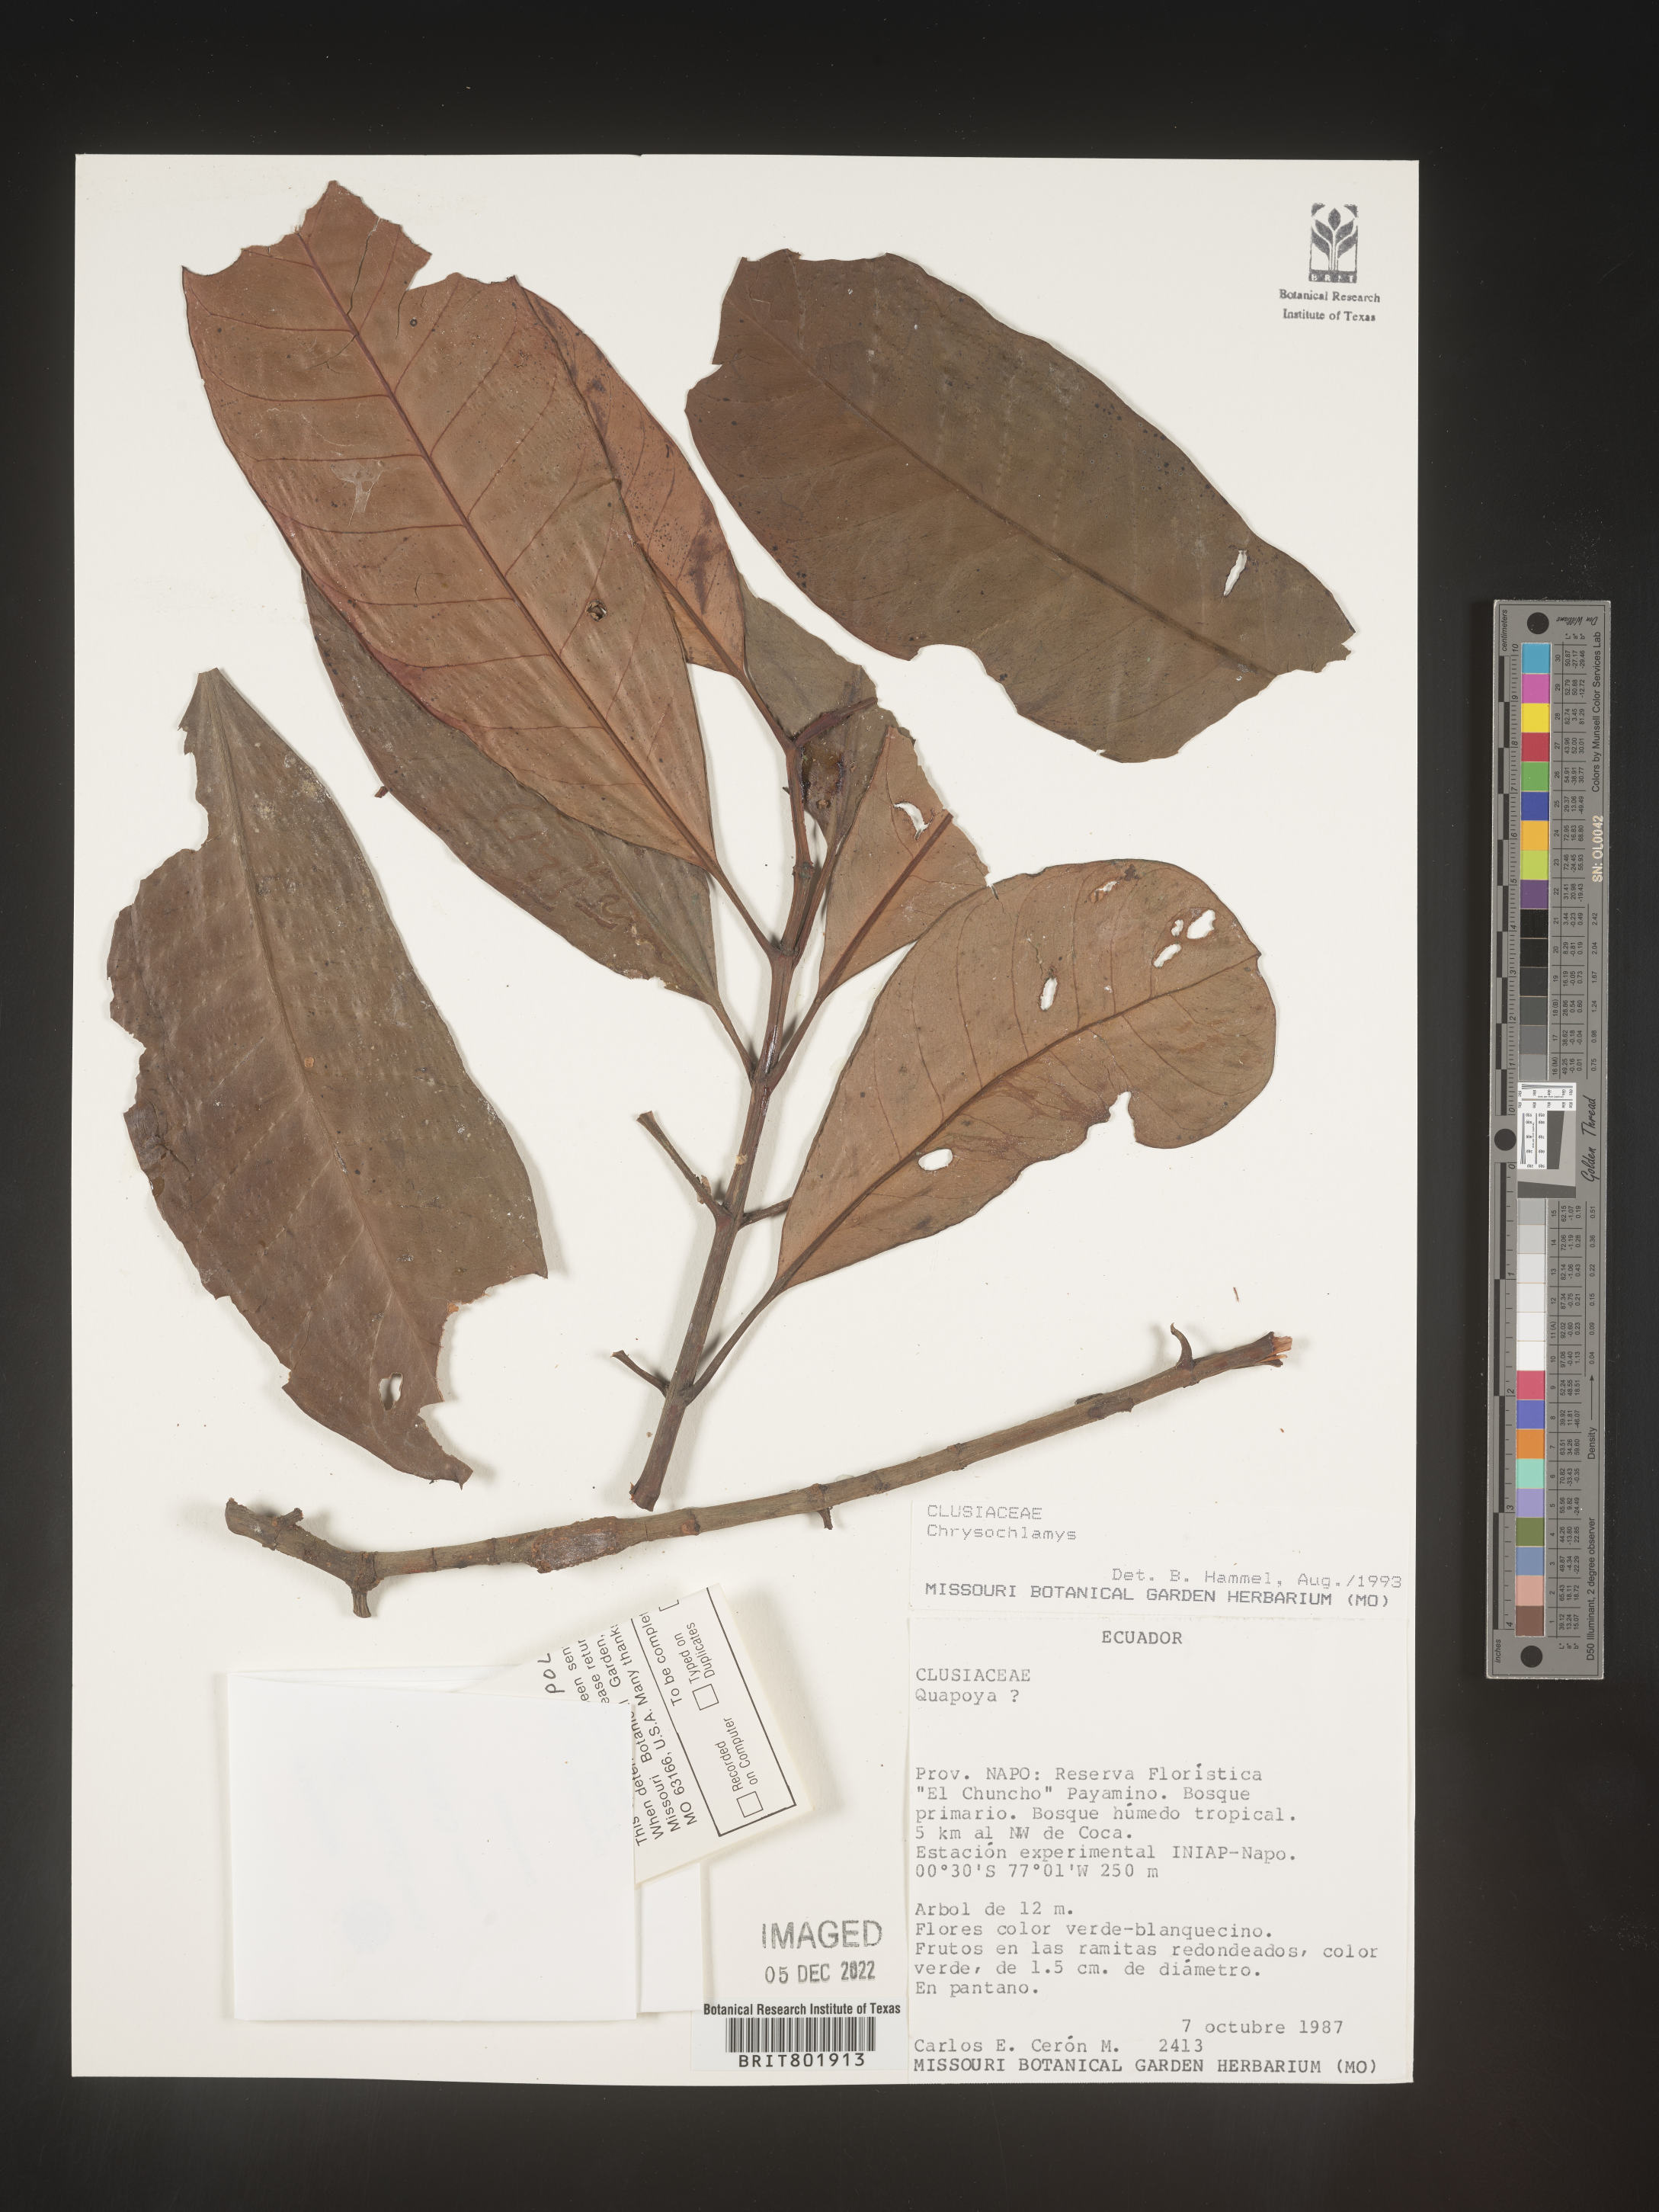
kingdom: Plantae
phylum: Tracheophyta
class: Magnoliopsida
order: Malpighiales
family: Clusiaceae
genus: Chrysochlamys
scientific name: Chrysochlamys
